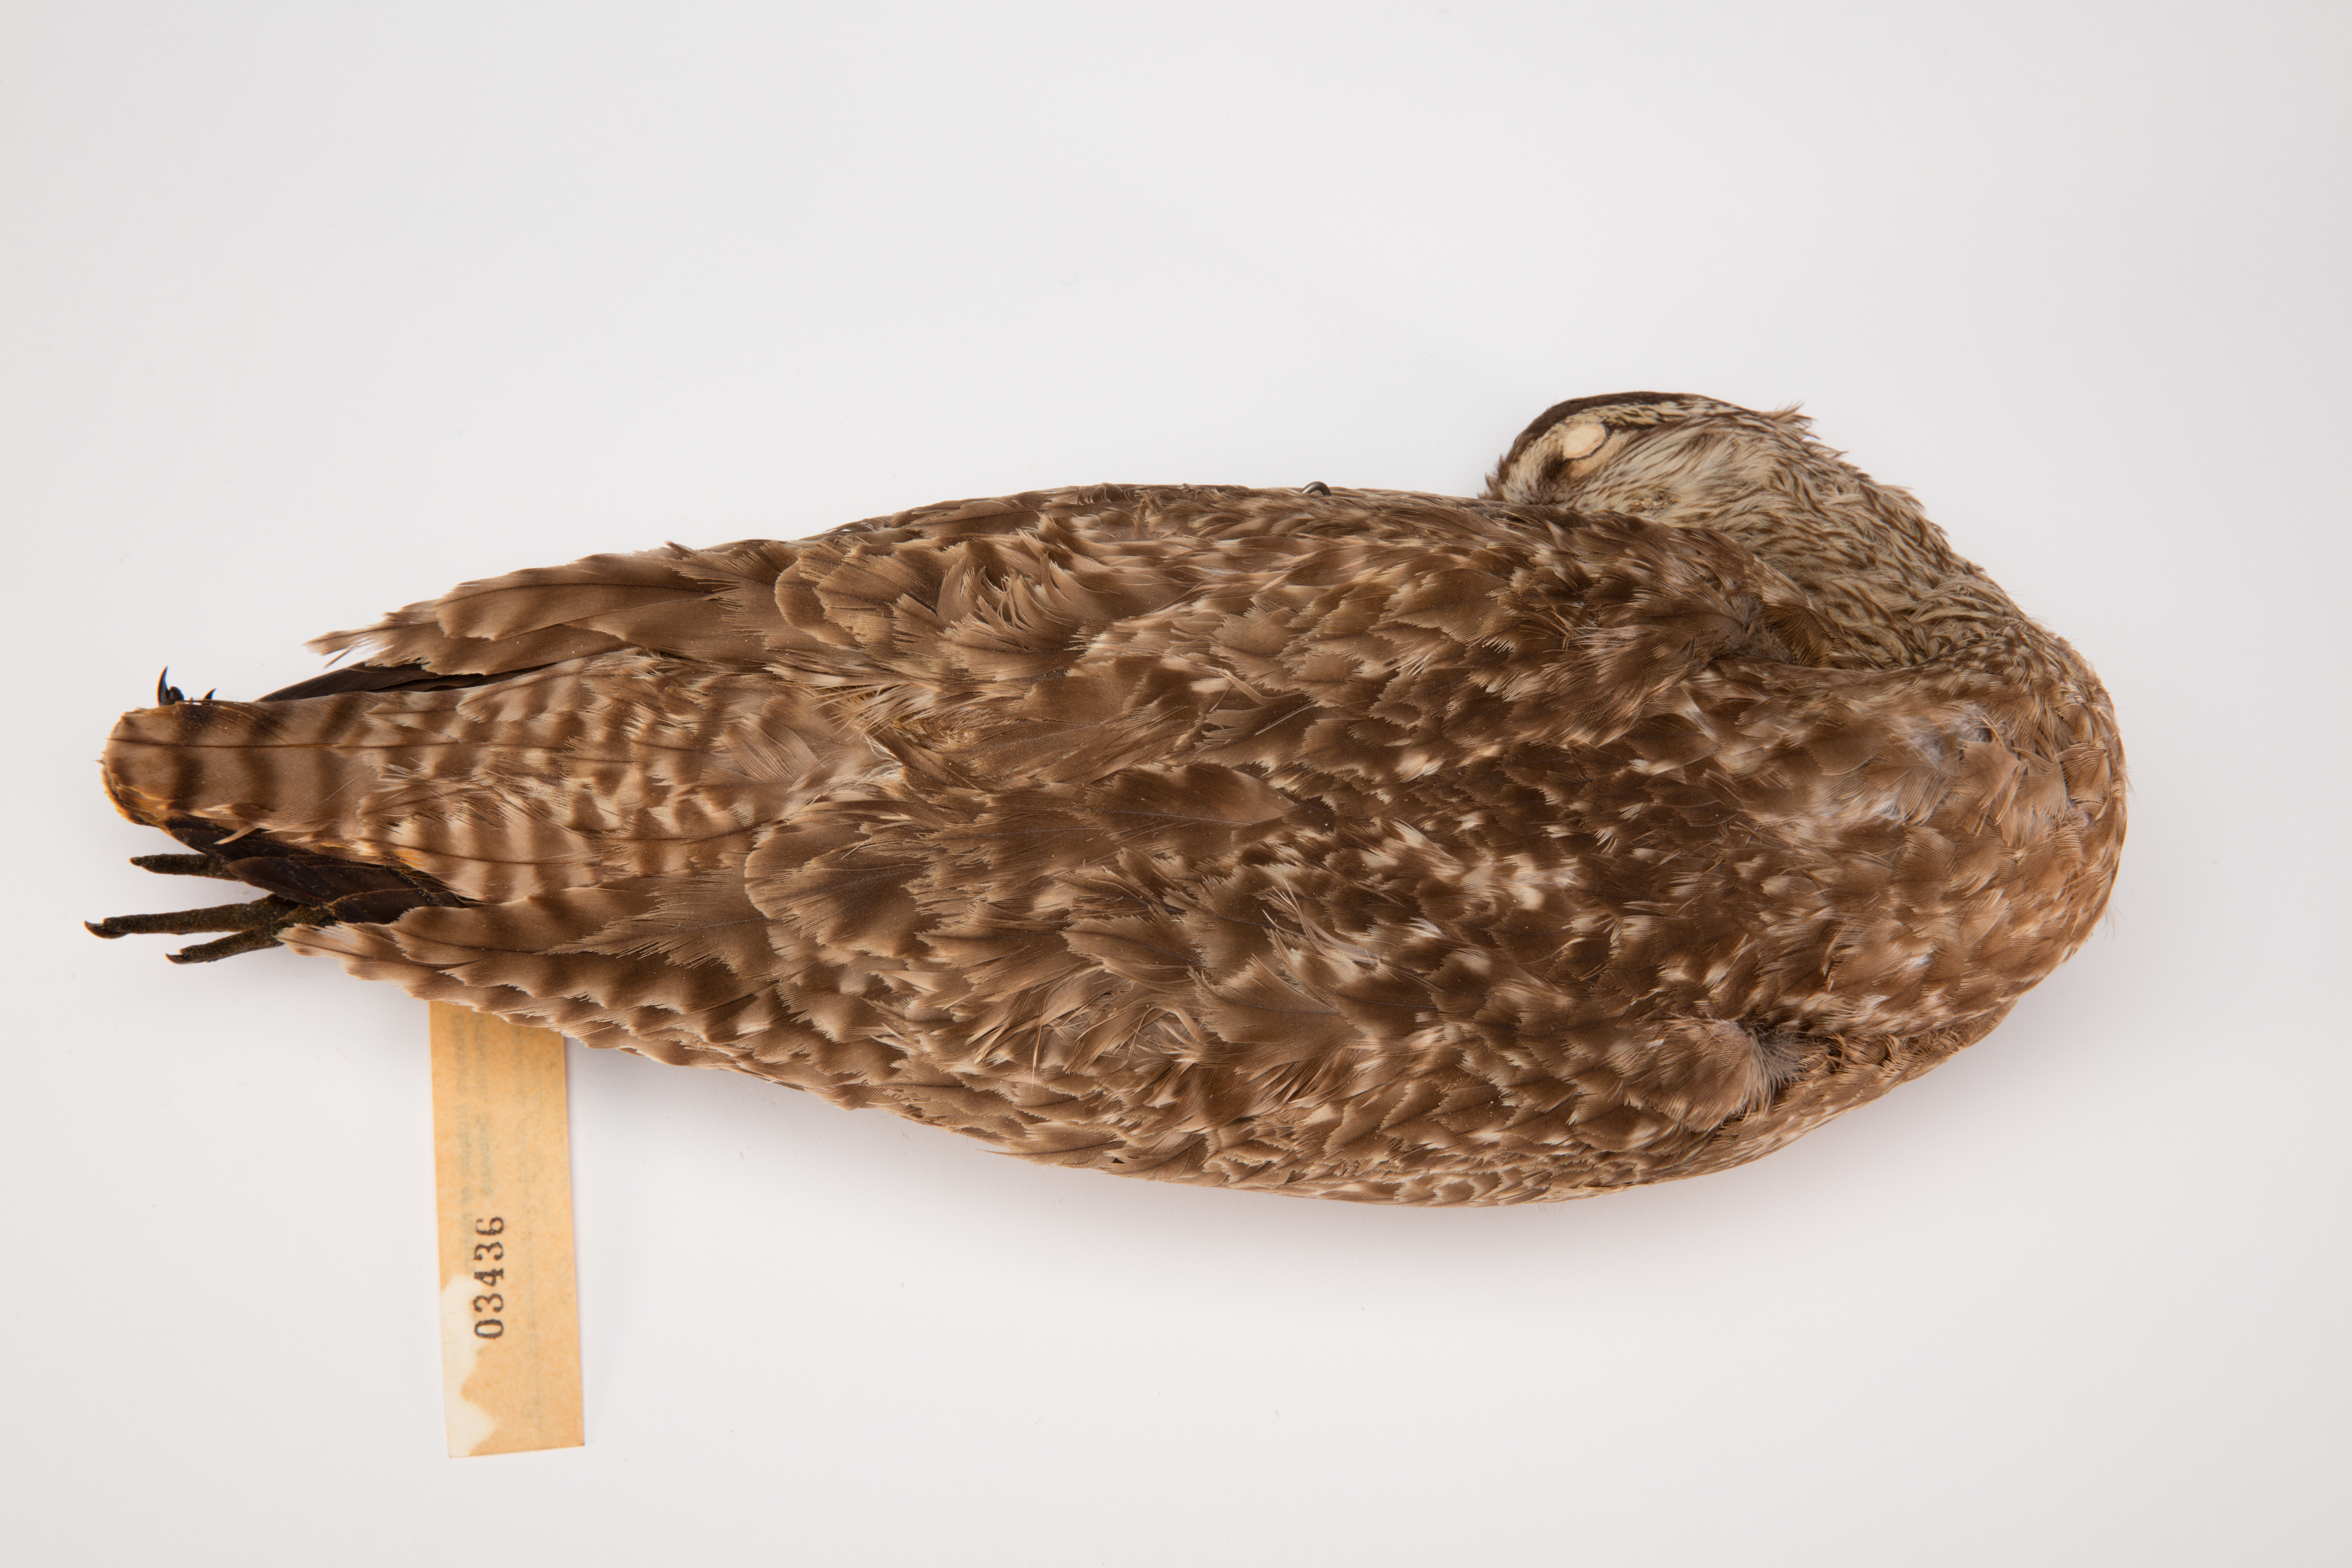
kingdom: Animalia
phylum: Chordata
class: Aves
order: Charadriiformes
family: Scolopacidae
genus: Numenius
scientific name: Numenius phaeopus
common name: Whimbrel
